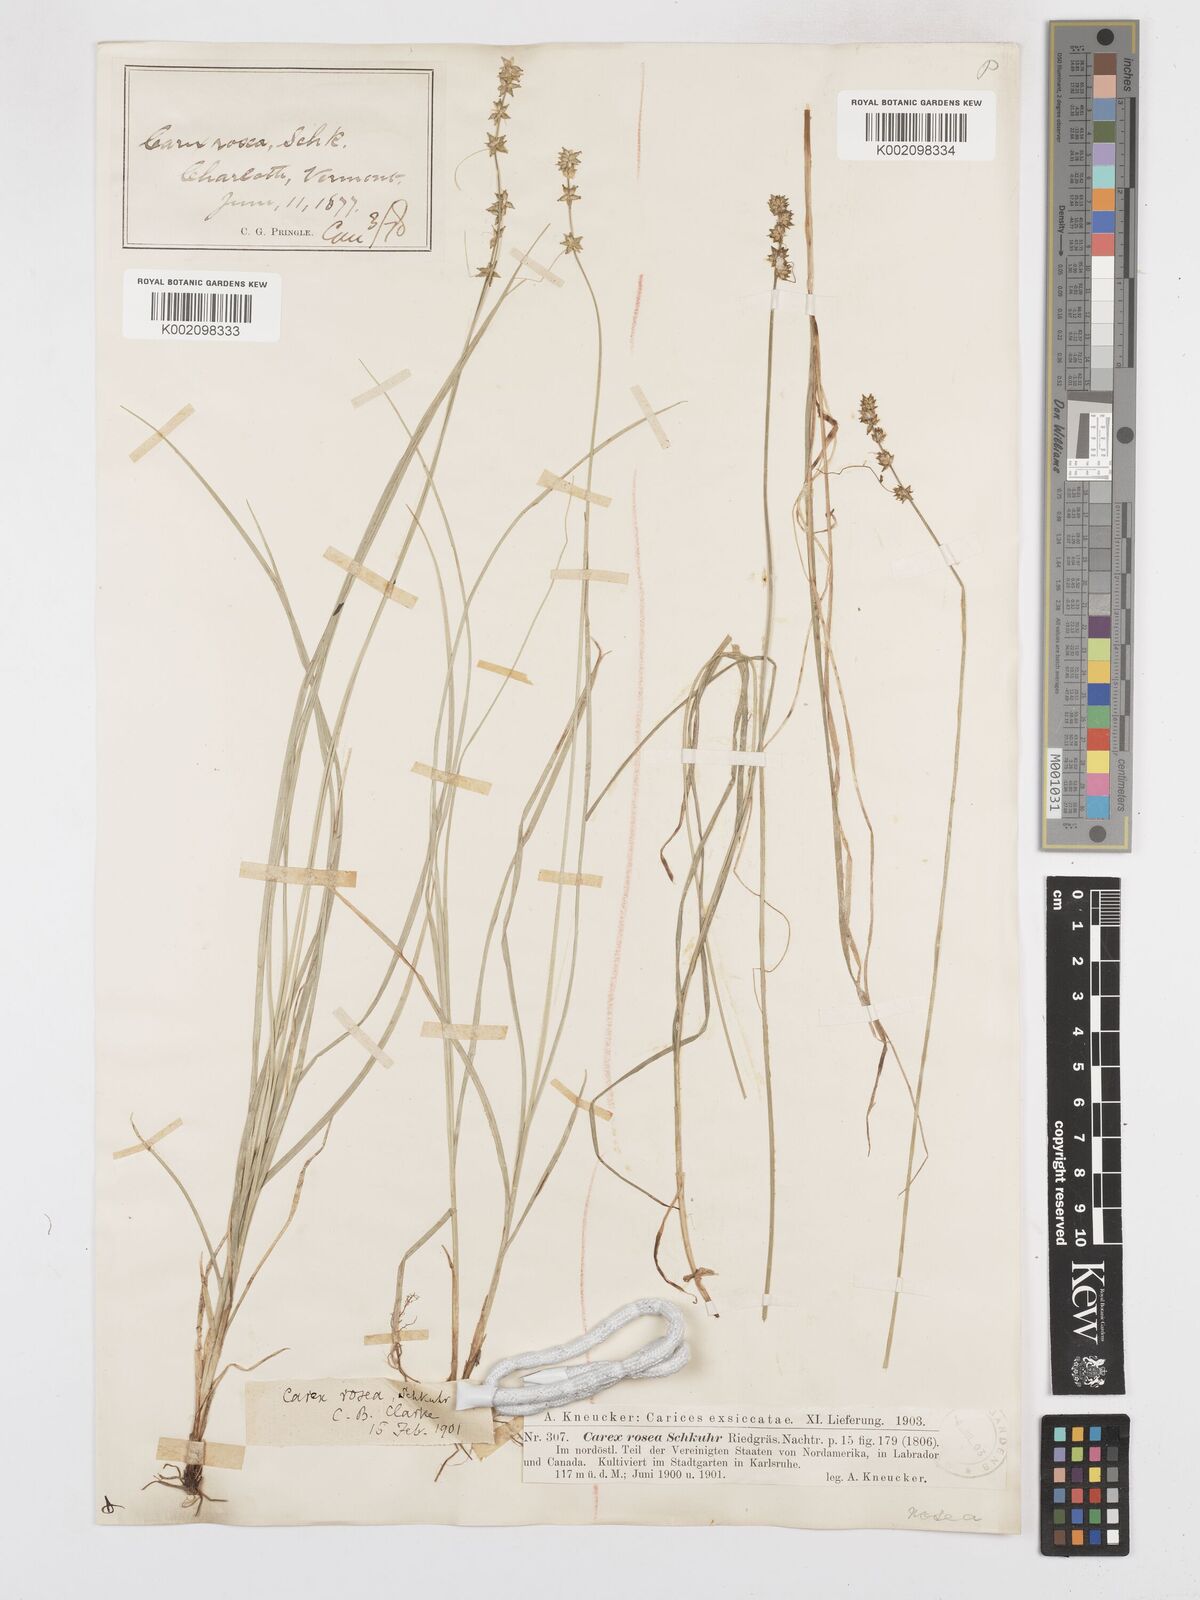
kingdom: Plantae
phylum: Tracheophyta
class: Liliopsida
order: Poales
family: Cyperaceae
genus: Carex
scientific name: Carex rosea
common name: Curly-styled wood sedge
